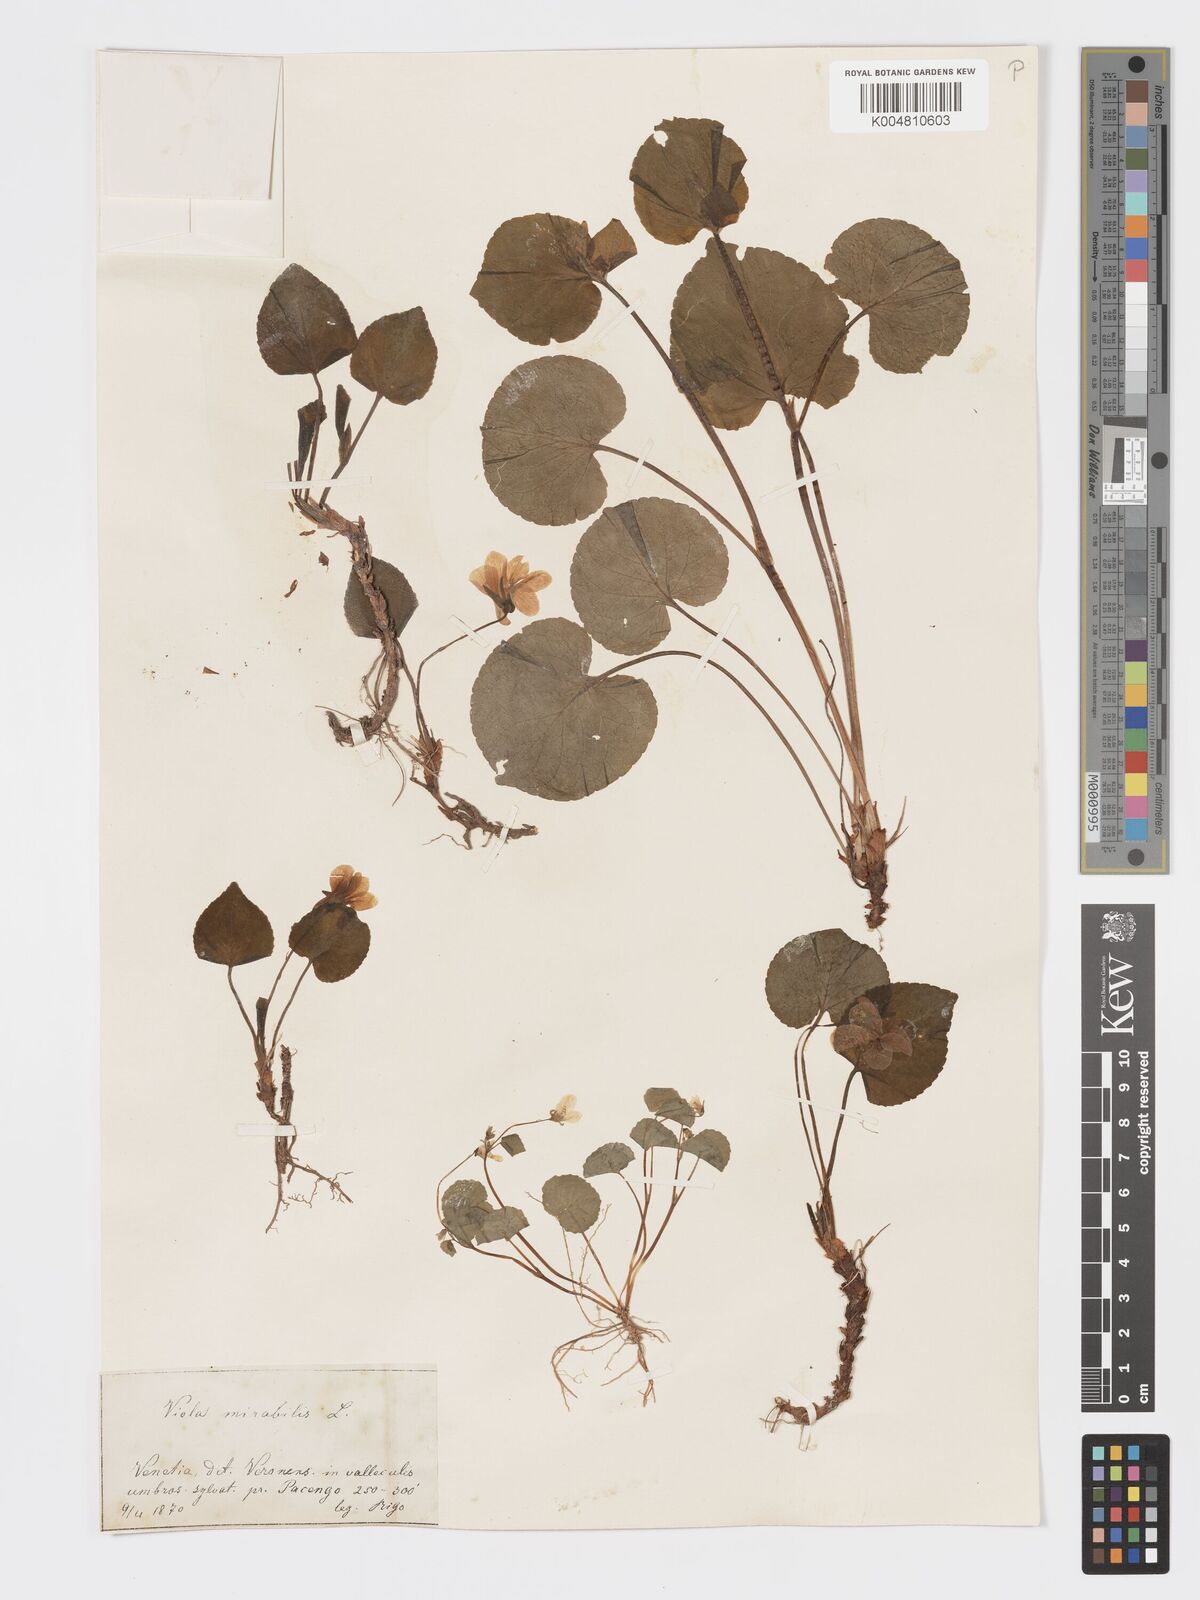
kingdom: Plantae
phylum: Tracheophyta
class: Magnoliopsida
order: Malpighiales
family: Violaceae
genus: Viola
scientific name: Viola mirabilis
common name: Wonder violet
